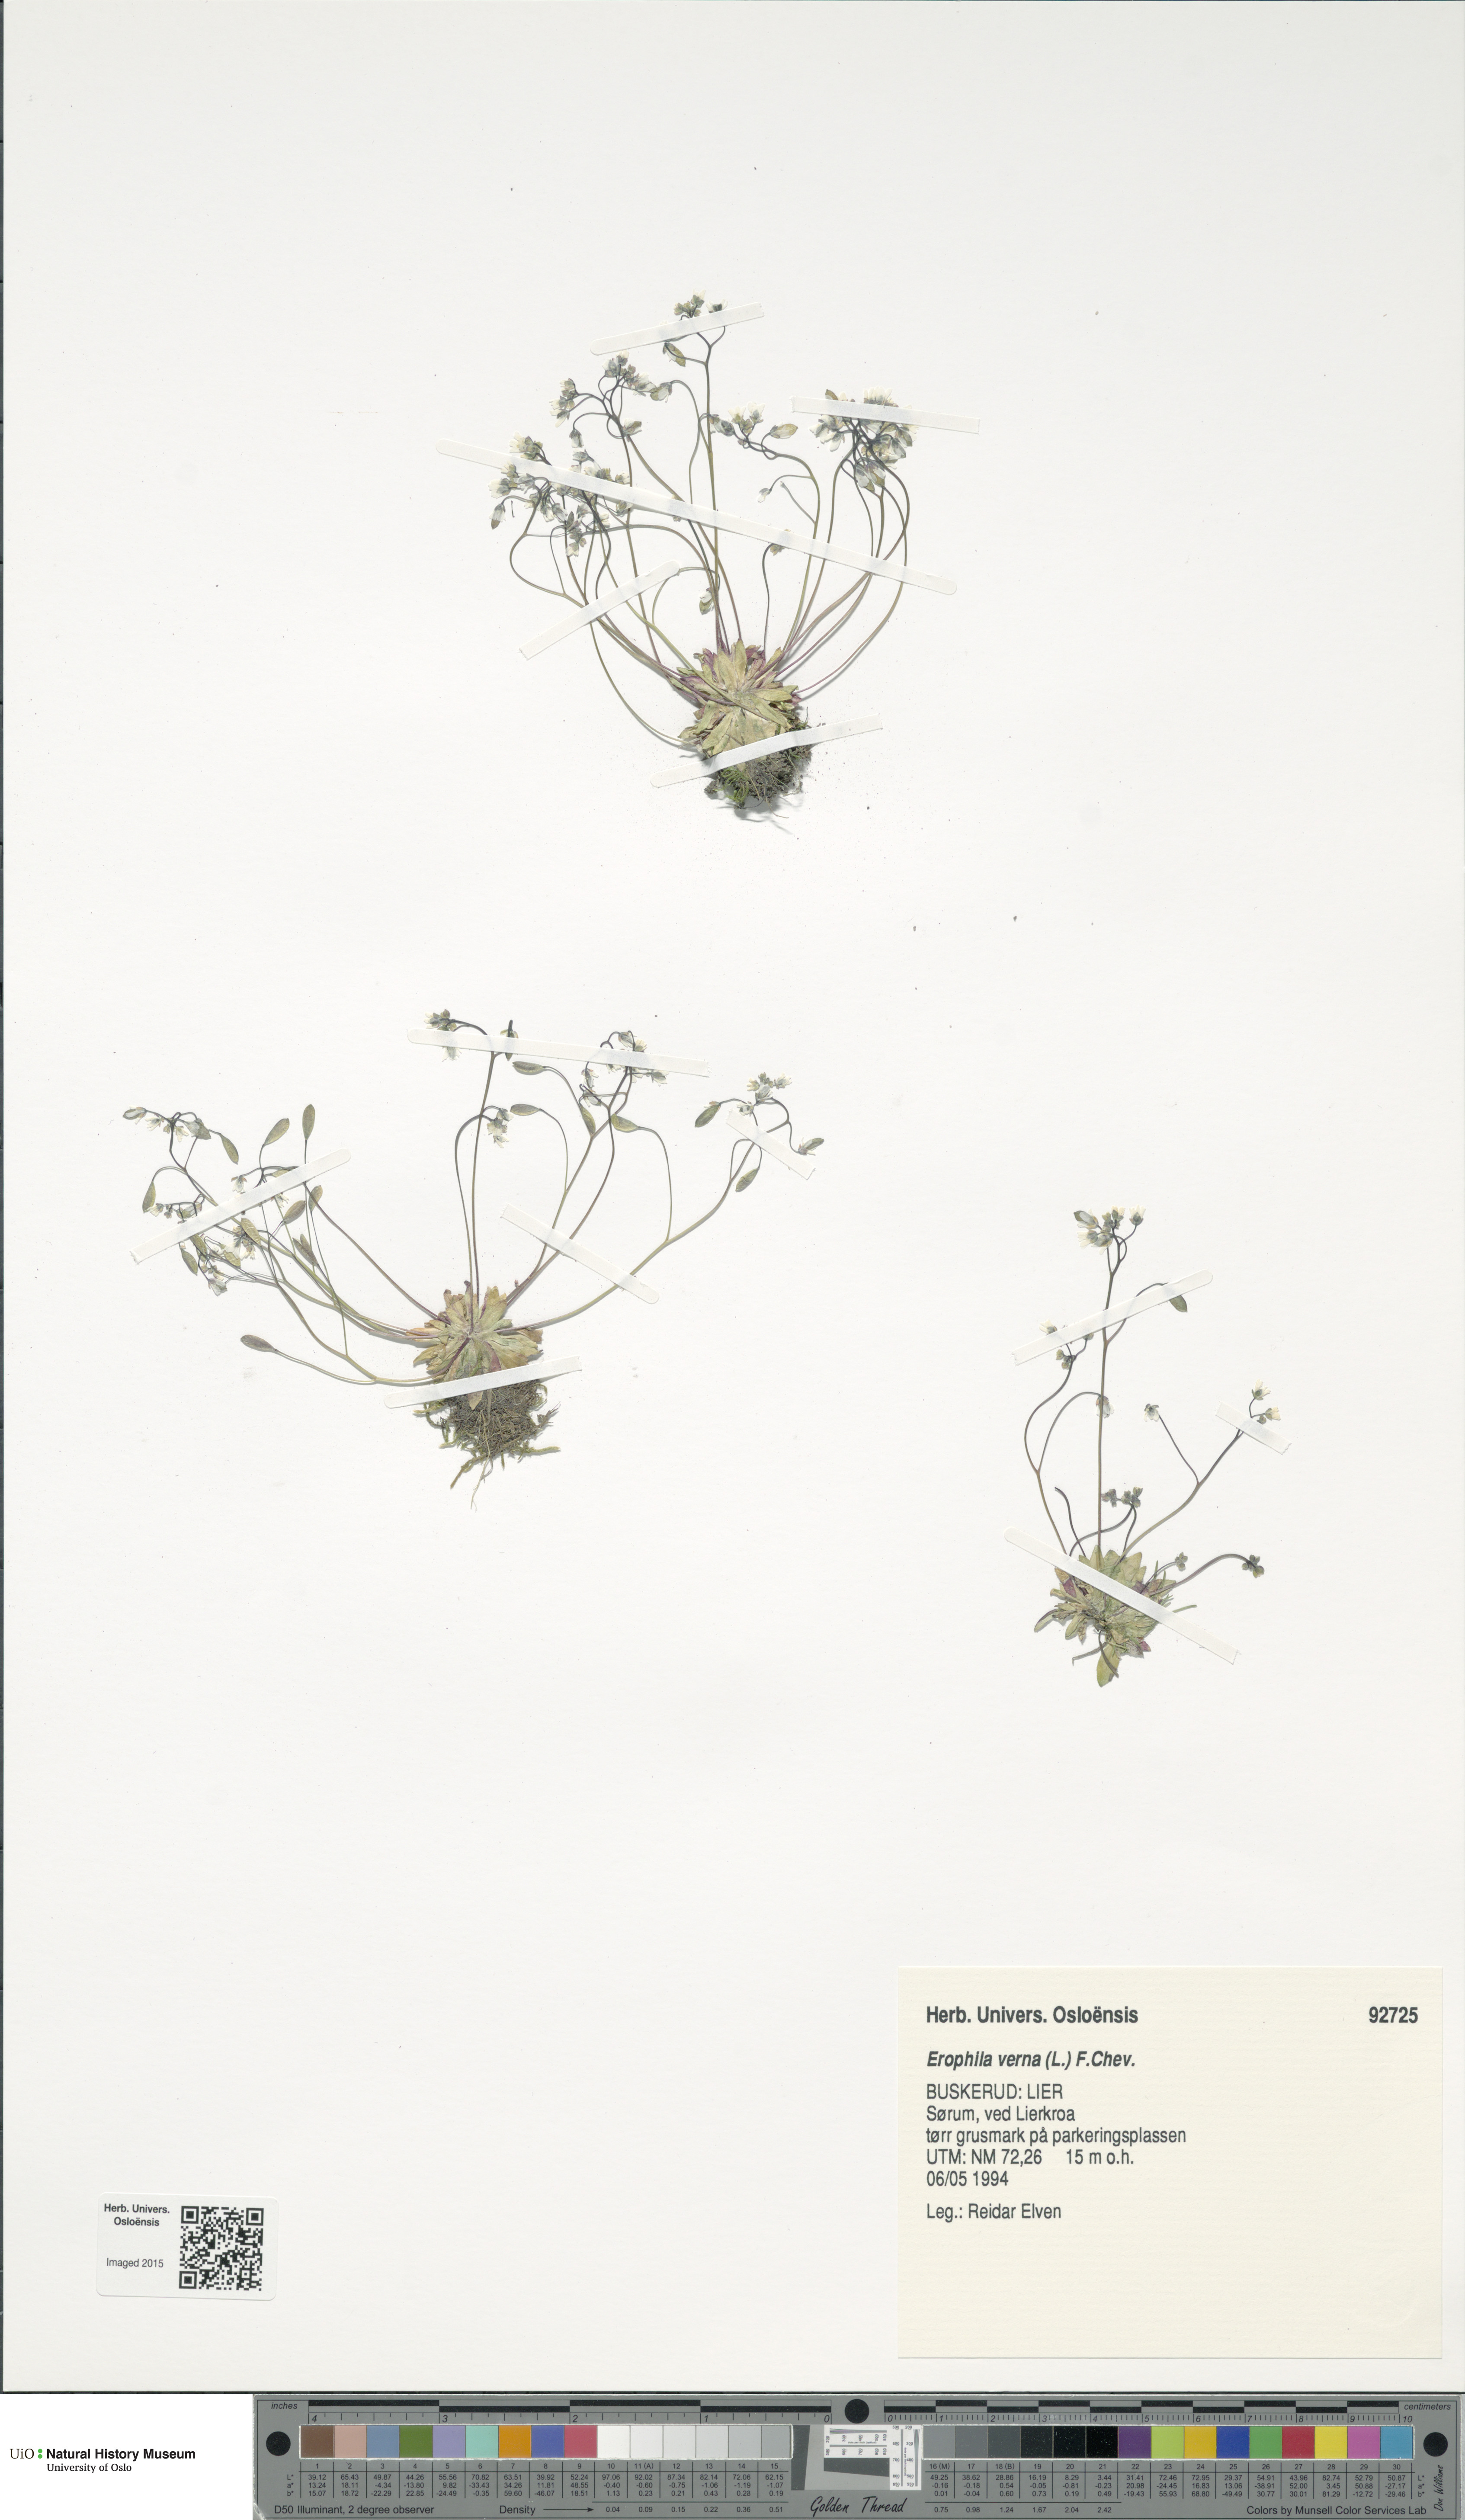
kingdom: Plantae
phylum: Tracheophyta
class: Magnoliopsida
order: Brassicales
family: Brassicaceae
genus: Draba
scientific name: Draba verna
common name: Spring draba
